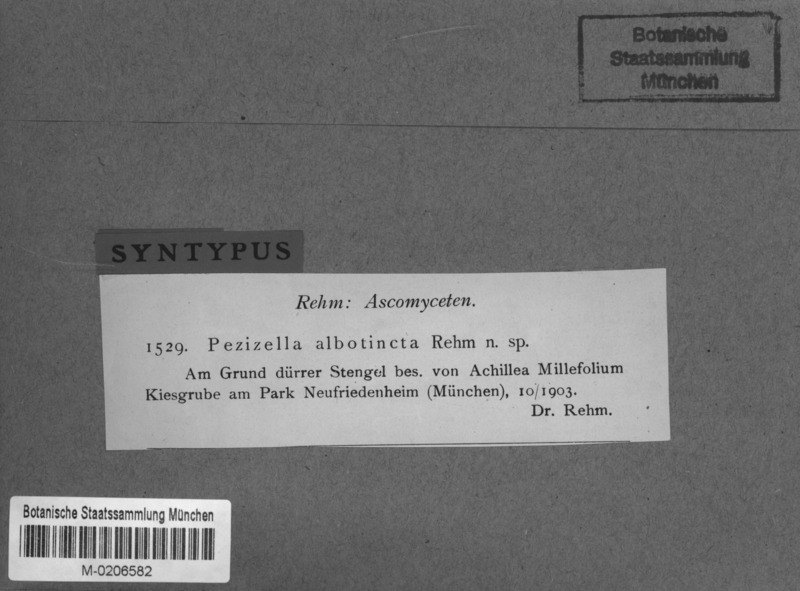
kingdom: Fungi
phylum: Ascomycota
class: Leotiomycetes
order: Helotiales
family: Pezizellaceae
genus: Pezizella
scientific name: Pezizella albotincta
